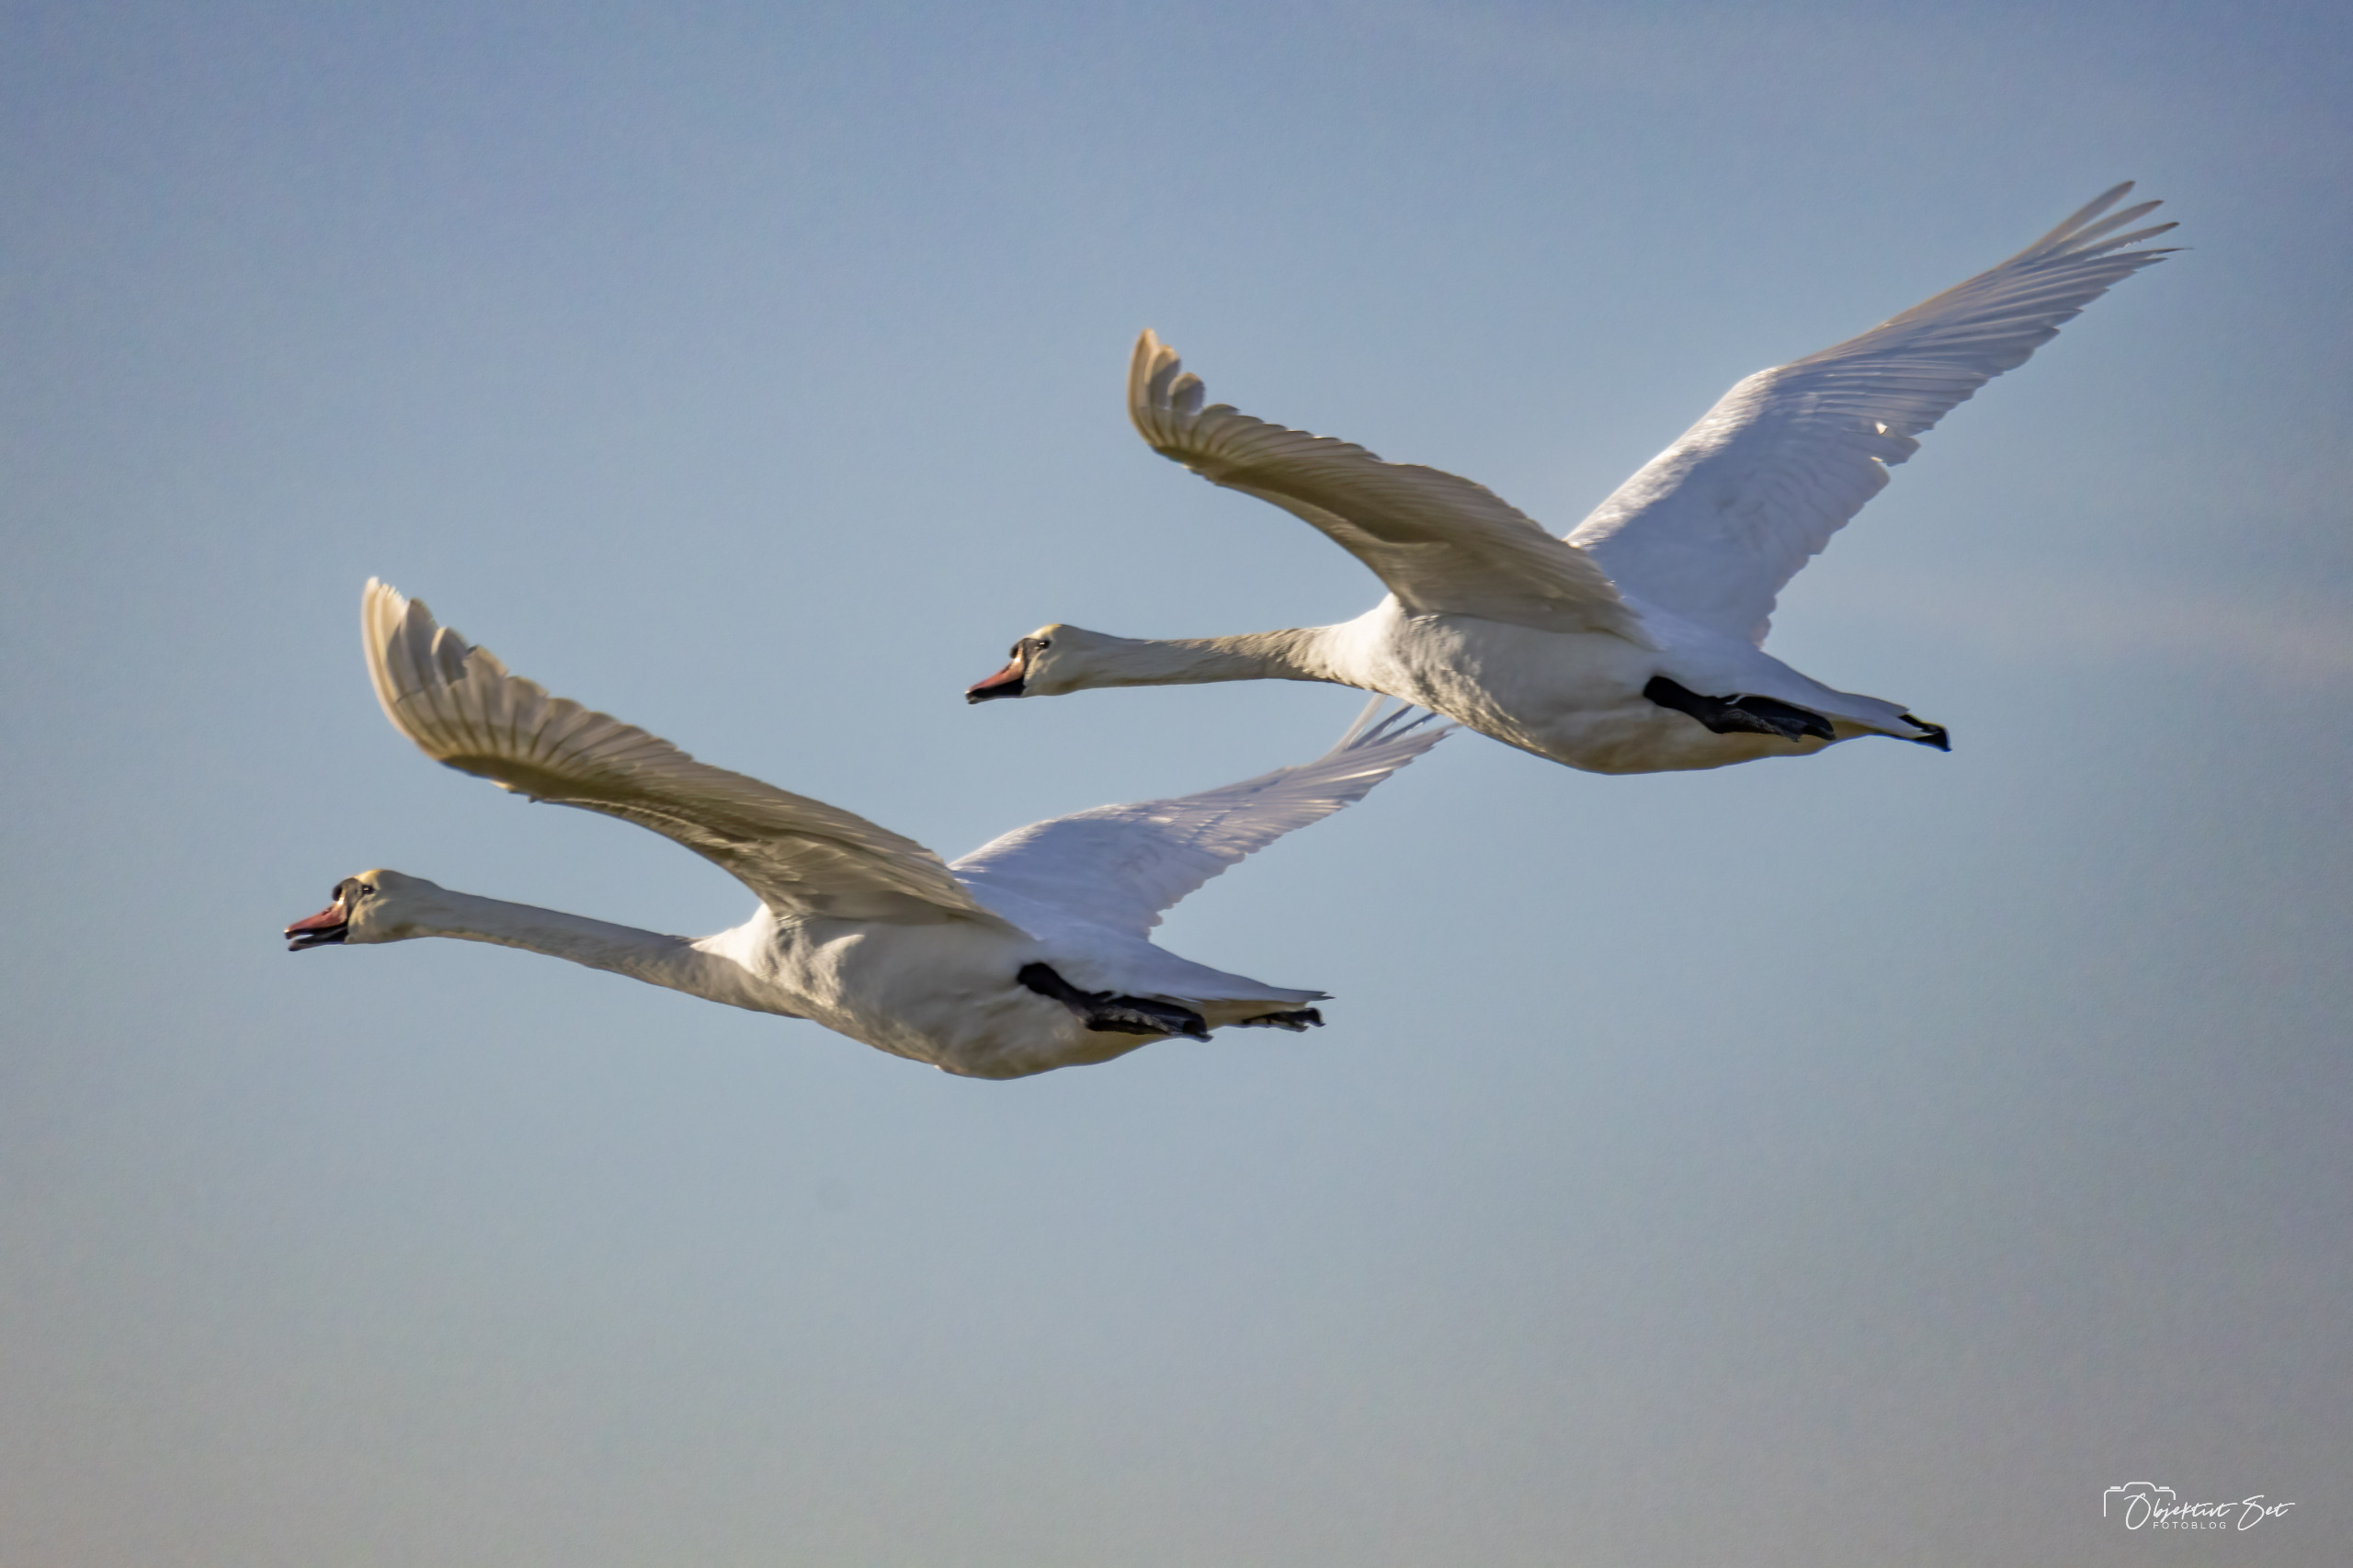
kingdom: Animalia
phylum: Chordata
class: Aves
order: Anseriformes
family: Anatidae
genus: Cygnus
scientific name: Cygnus olor
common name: Knopsvane
